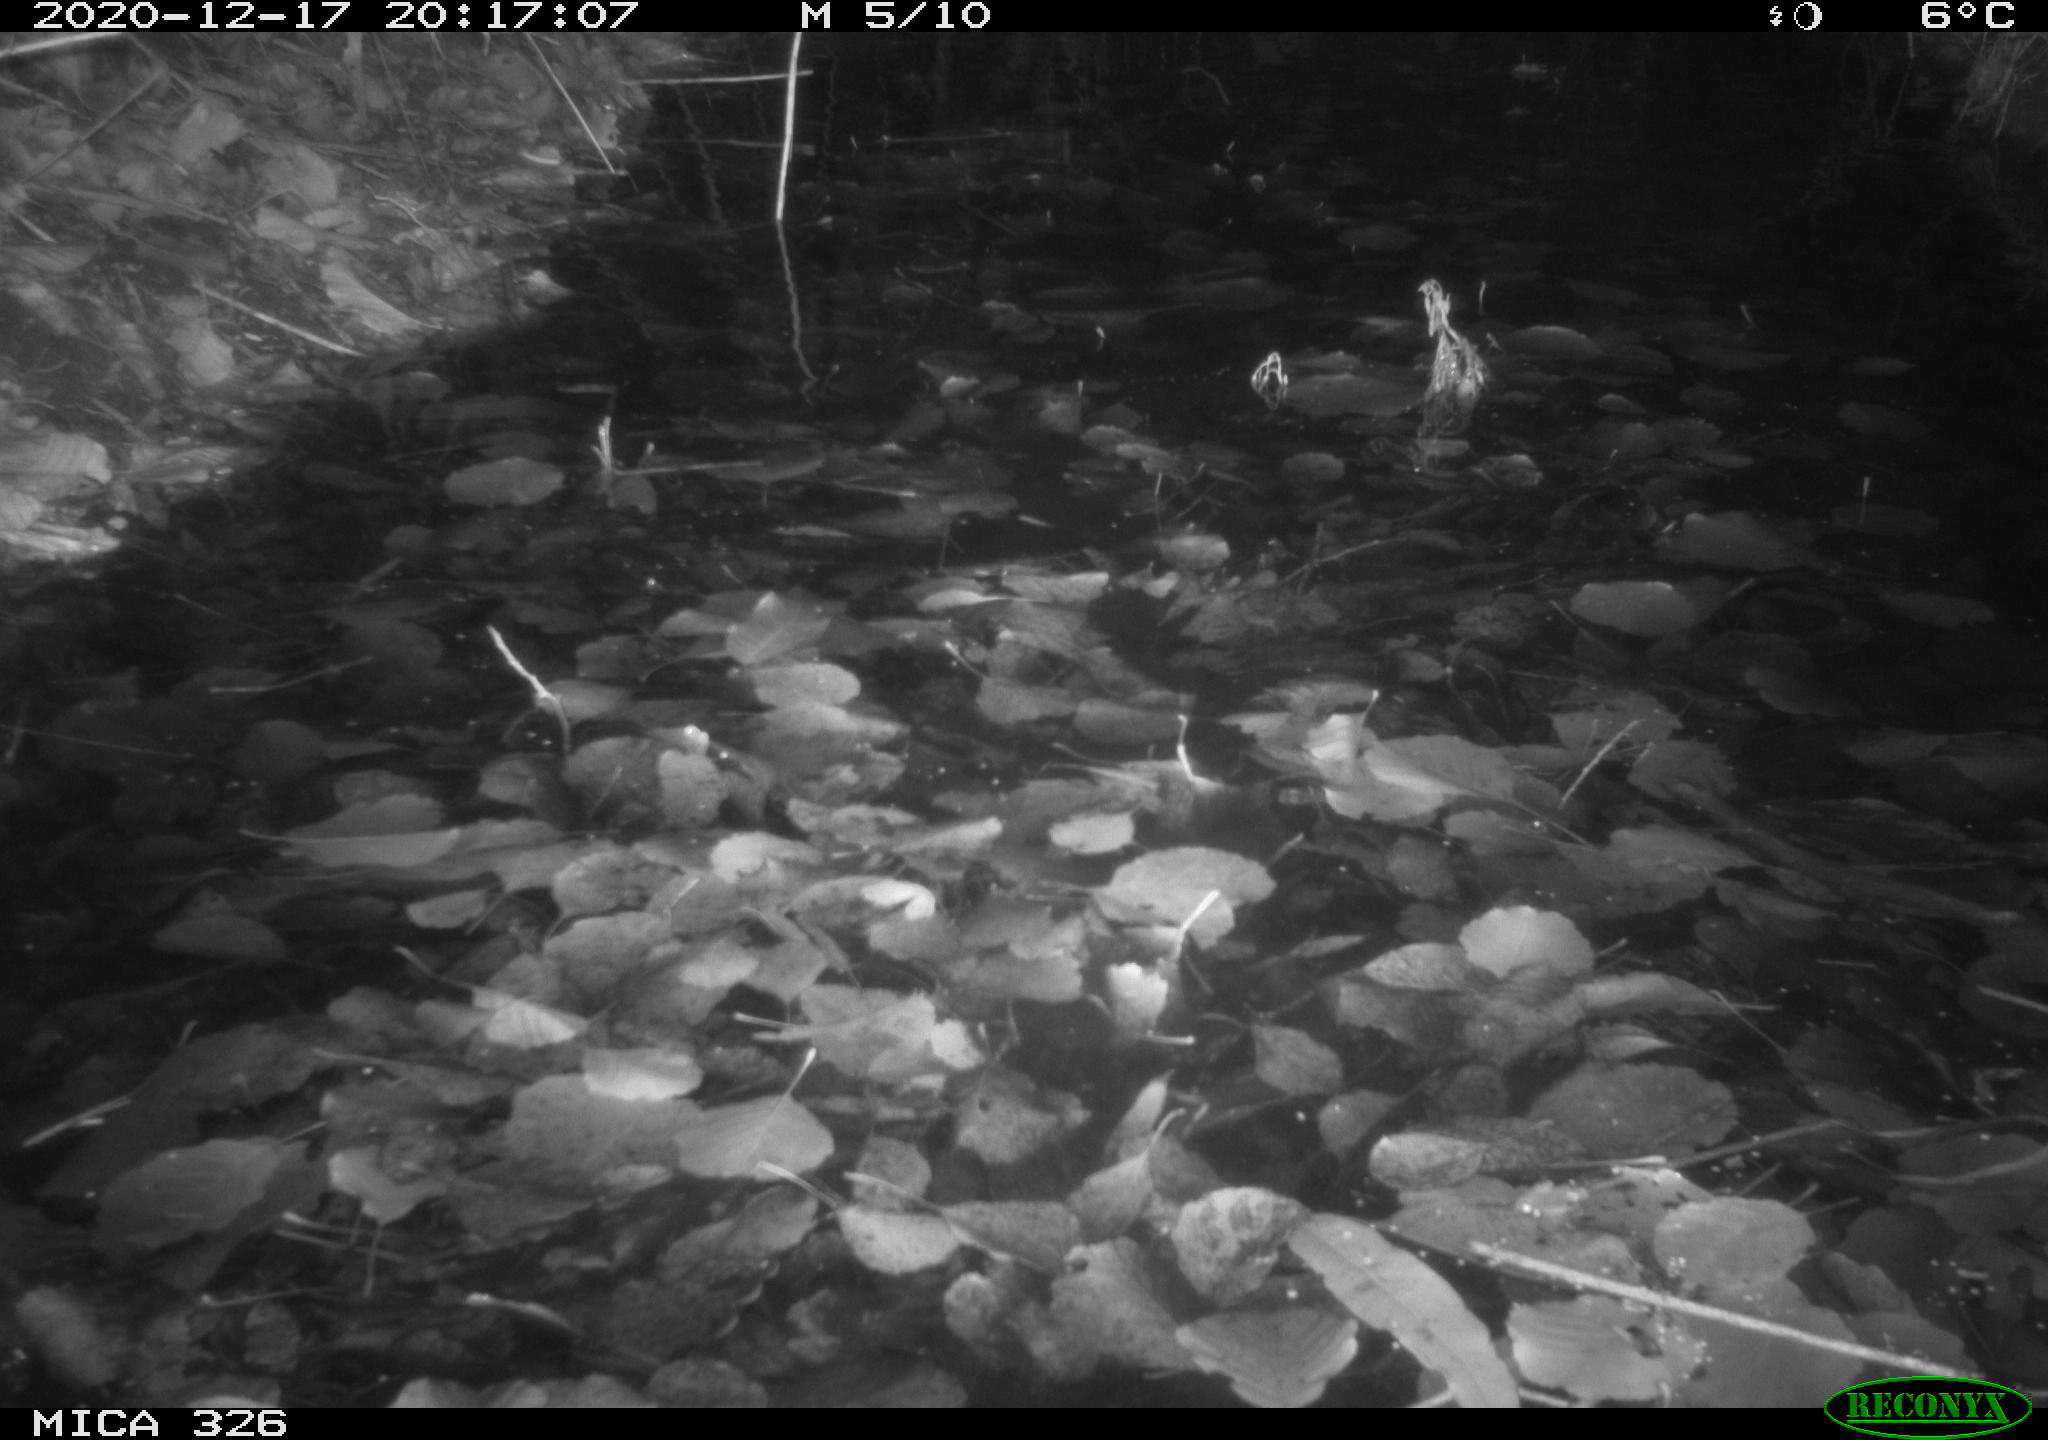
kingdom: Animalia
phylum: Chordata
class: Mammalia
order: Carnivora
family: Mustelidae
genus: Lutra
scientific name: Lutra lutra
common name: European otter
